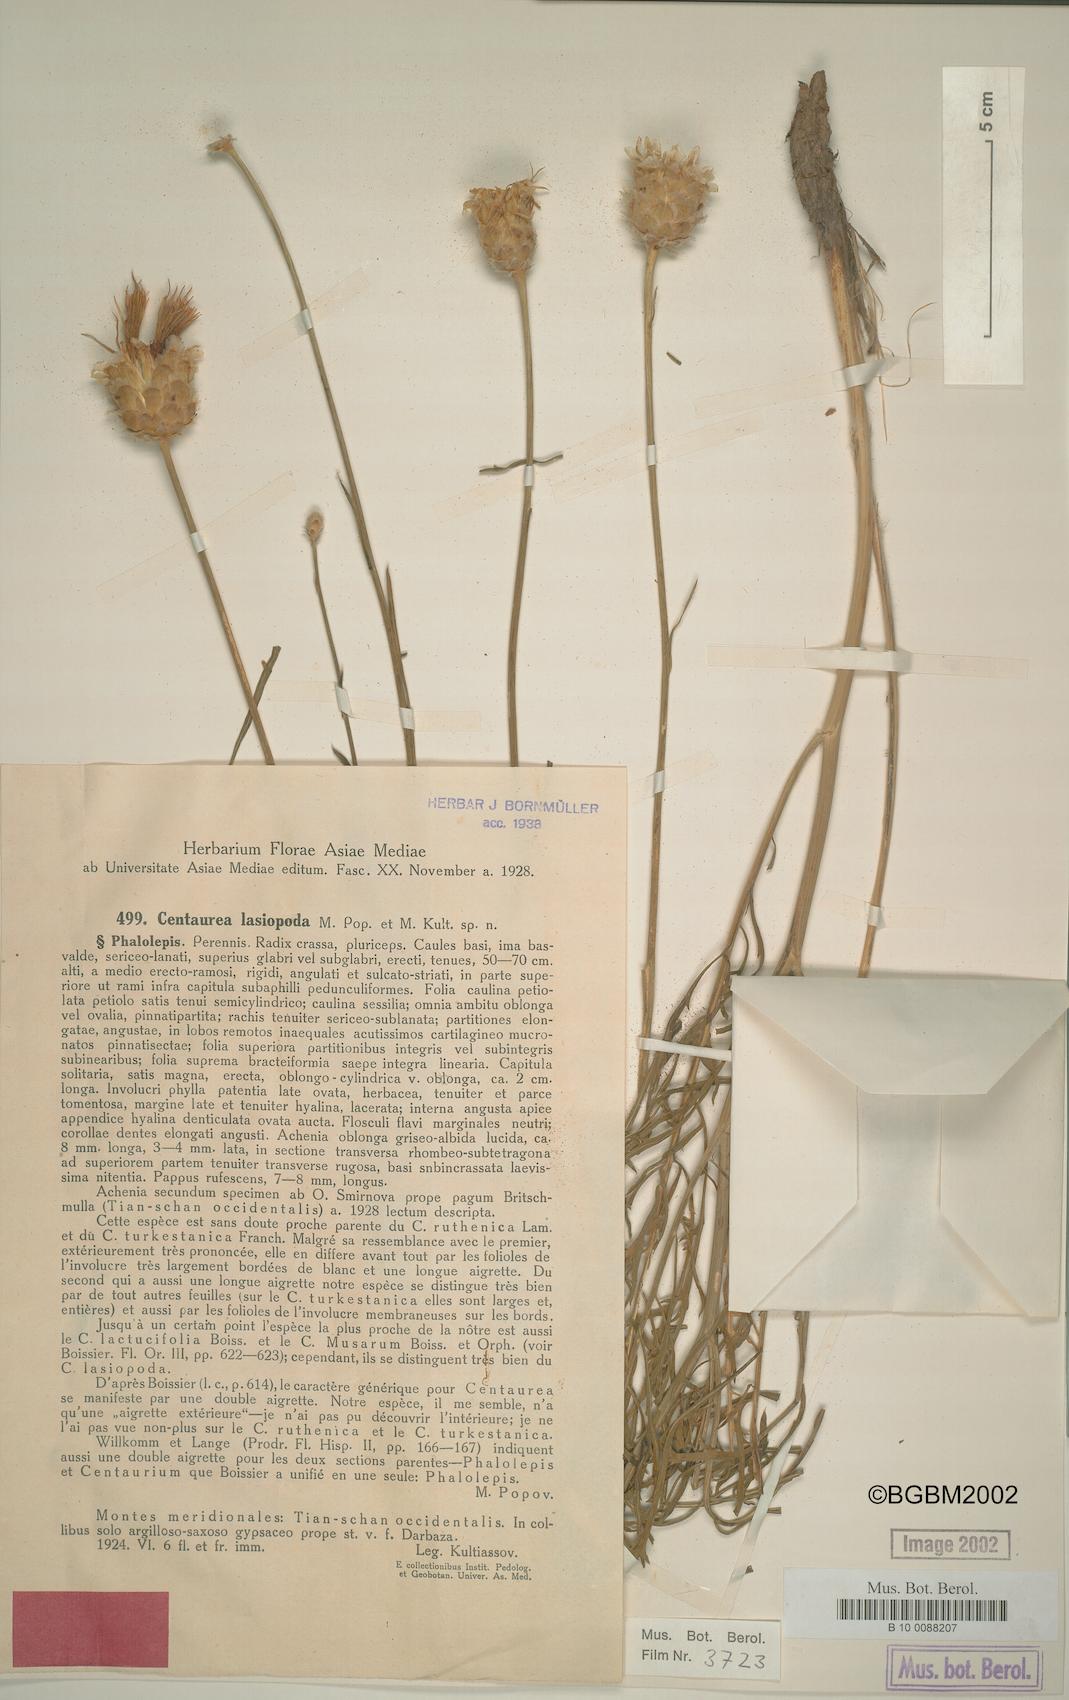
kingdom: Plantae
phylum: Tracheophyta
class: Magnoliopsida
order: Asterales
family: Asteraceae
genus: Rhaponticoides
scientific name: Rhaponticoides lasiopoda
